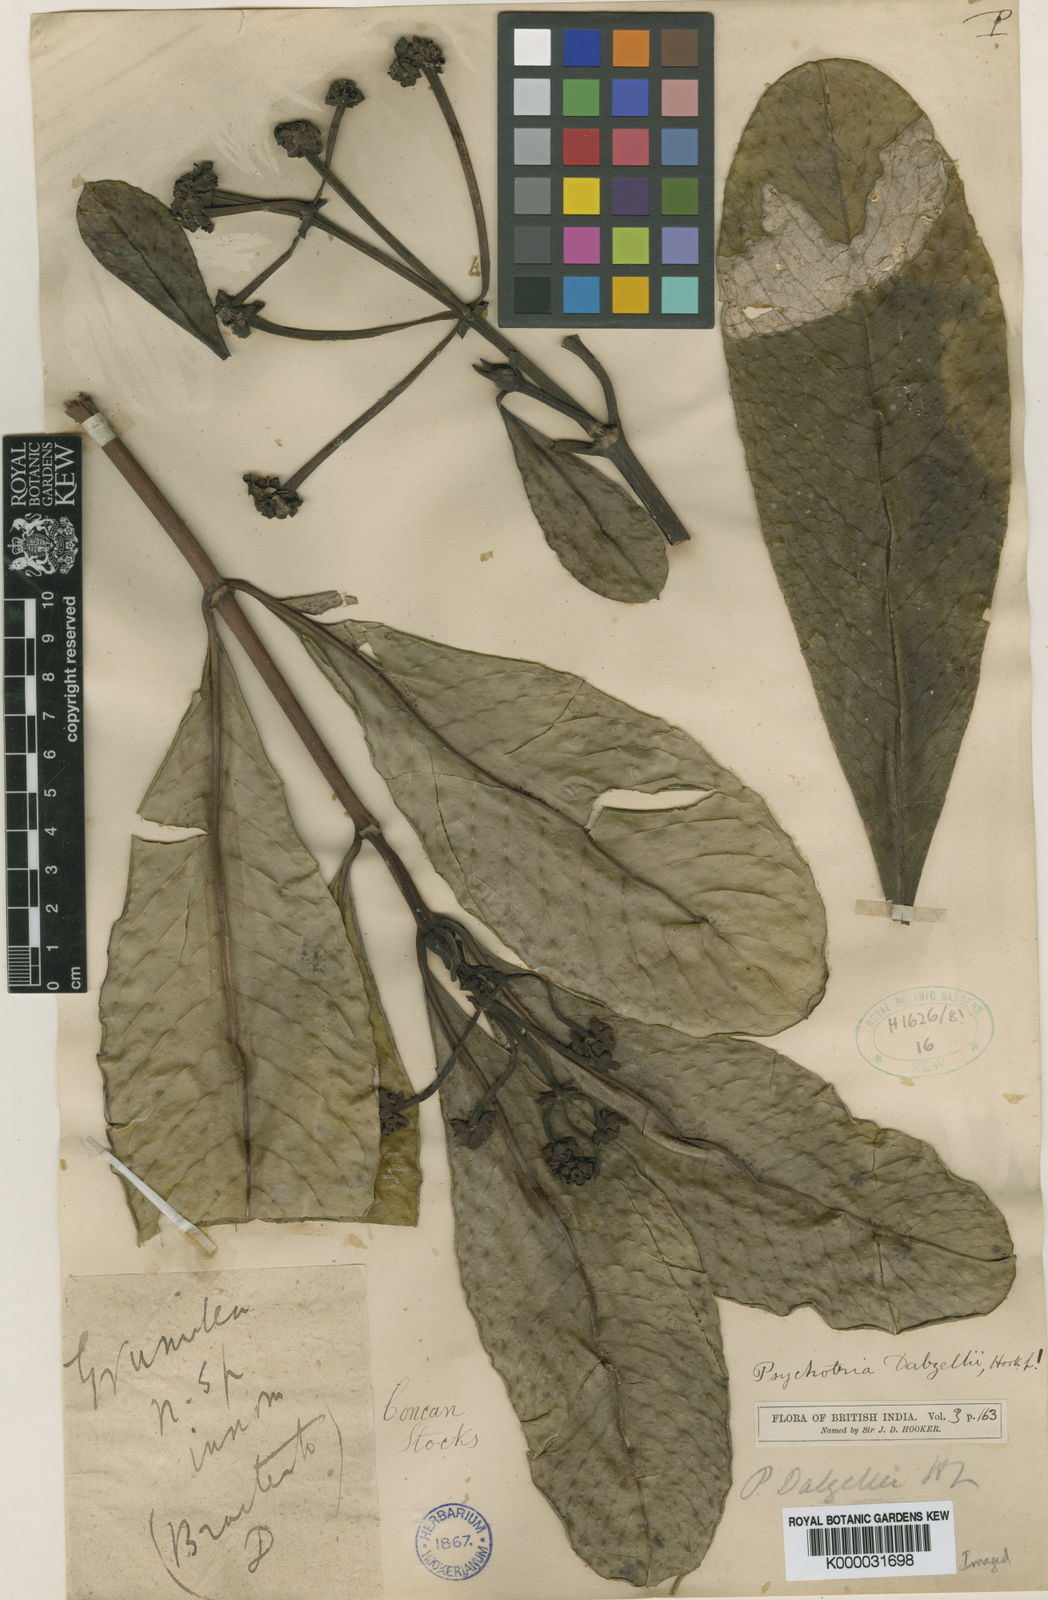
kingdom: Plantae
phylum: Tracheophyta
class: Magnoliopsida
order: Gentianales
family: Rubiaceae
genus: Psychotria
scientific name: Psychotria dalzellii
